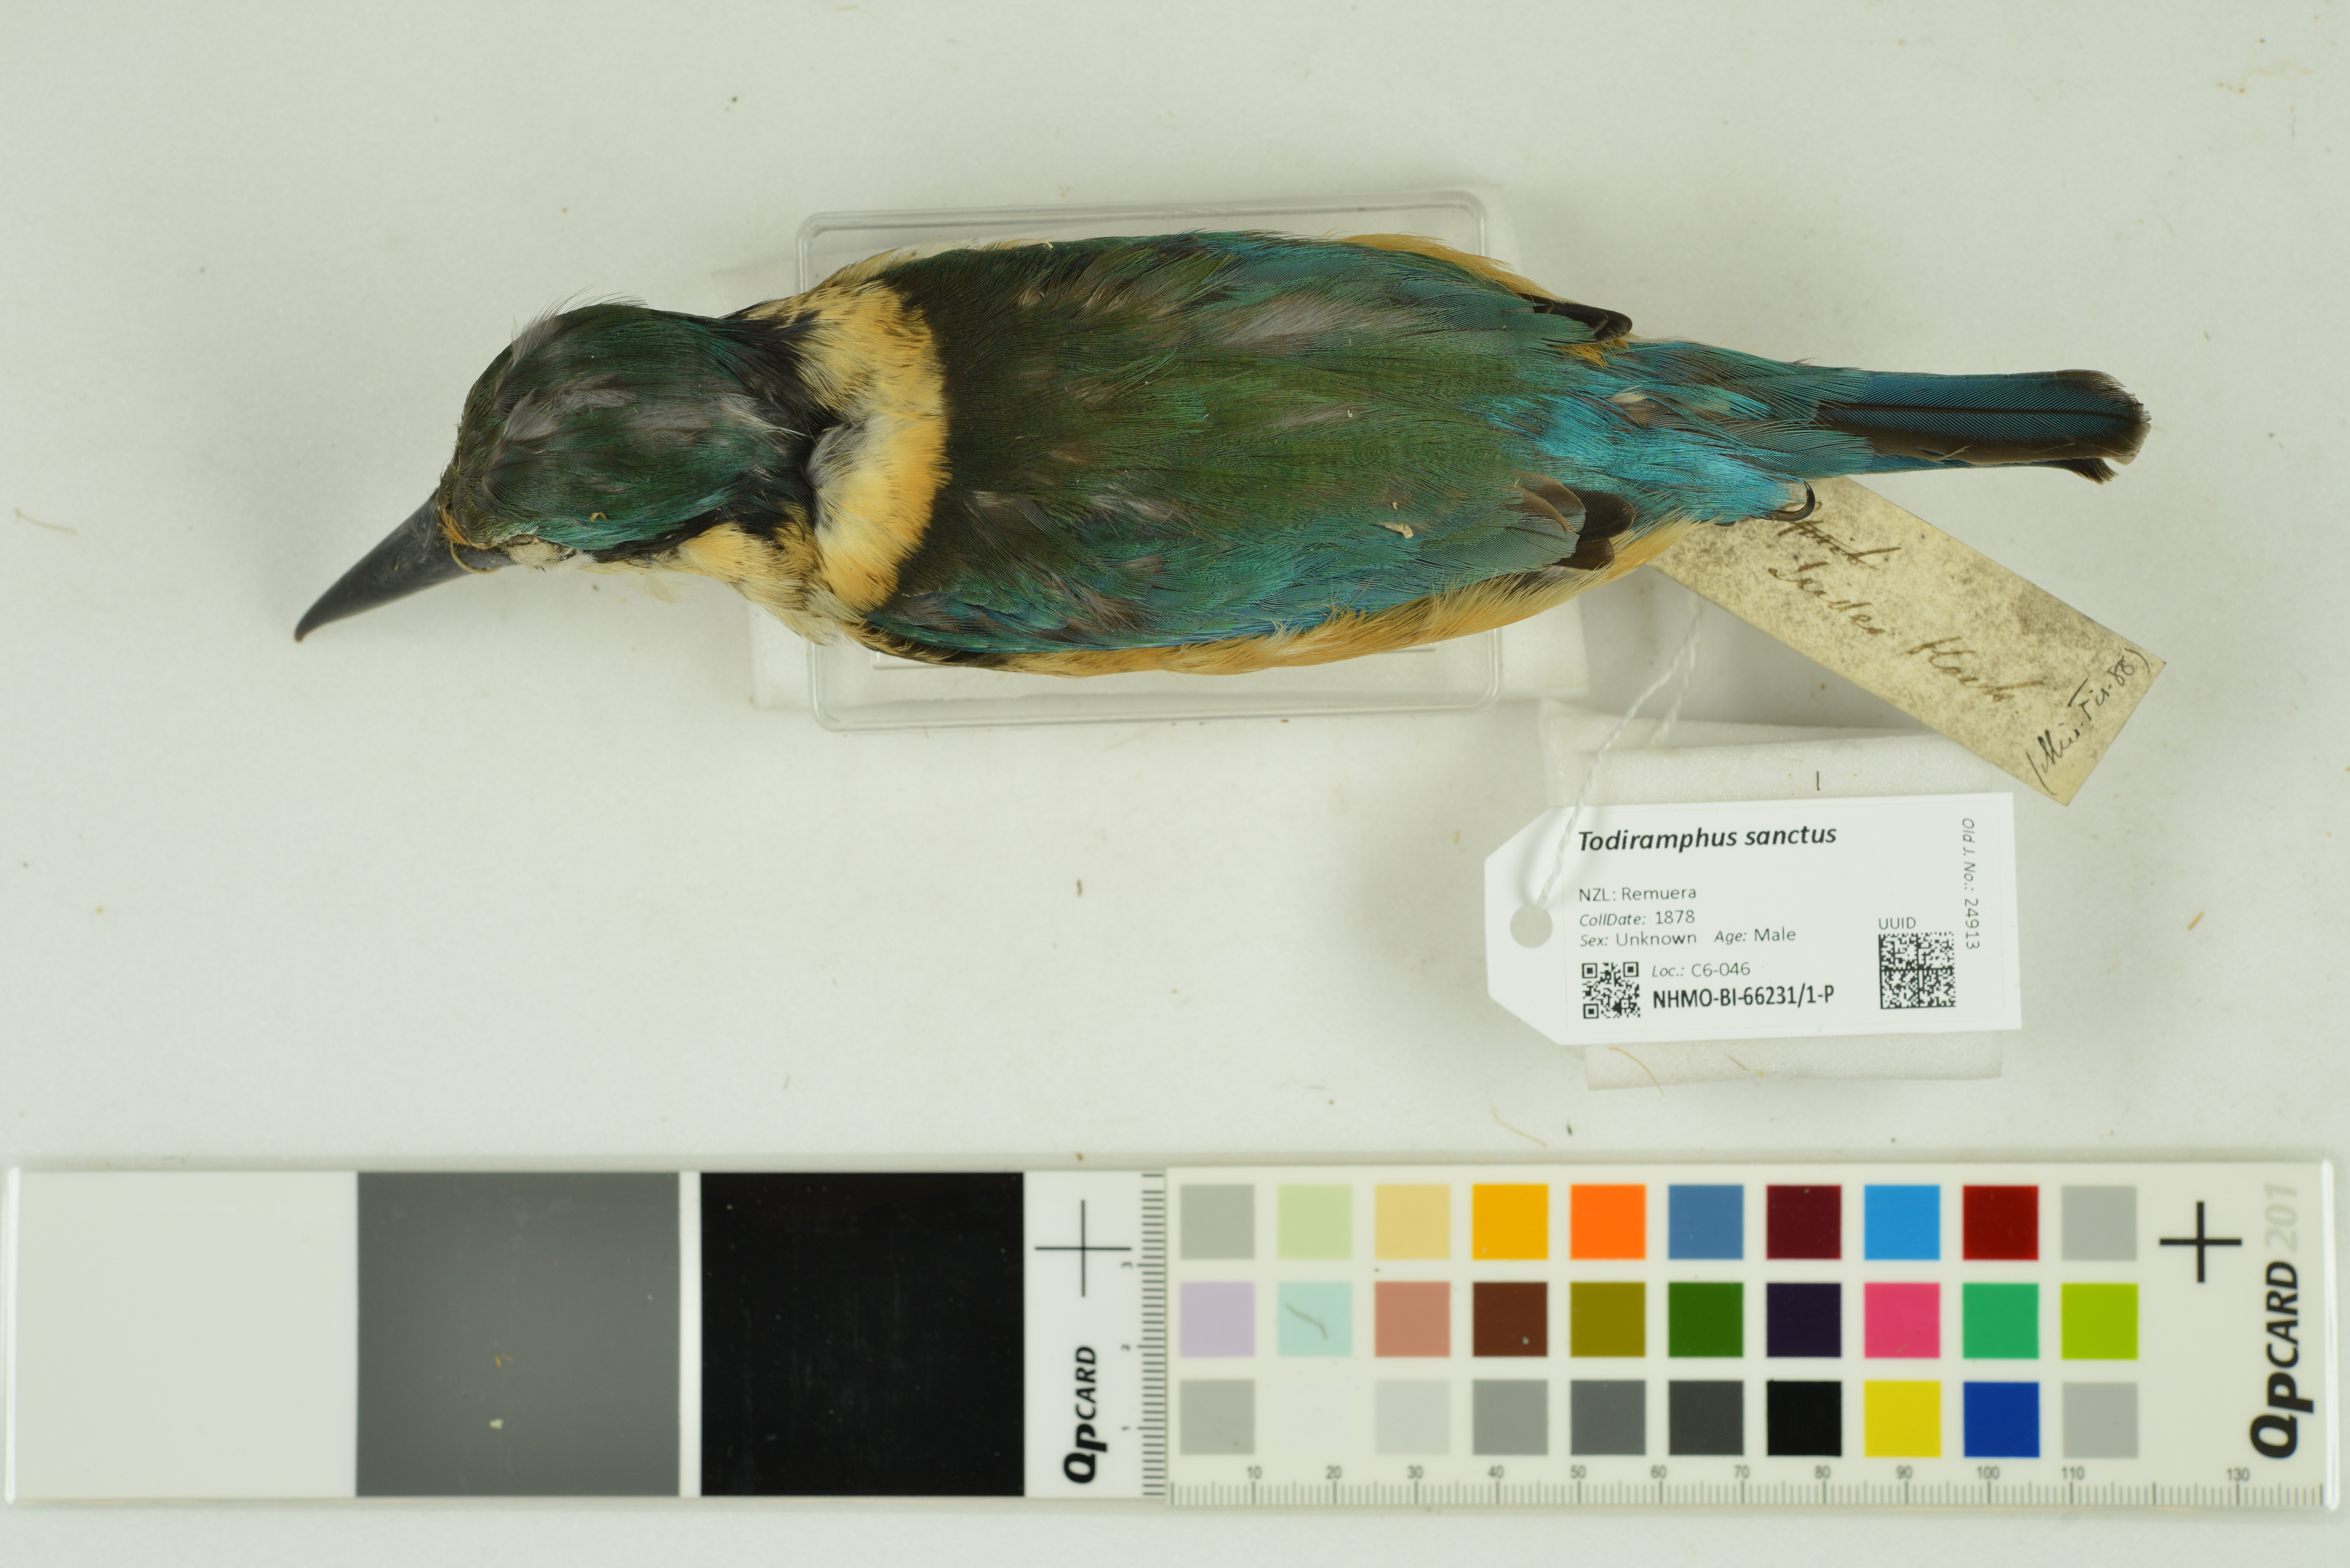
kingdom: Animalia
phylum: Chordata
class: Aves
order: Coraciiformes
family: Alcedinidae
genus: Todiramphus
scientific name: Todiramphus sanctus
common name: Sacred kingfisher
